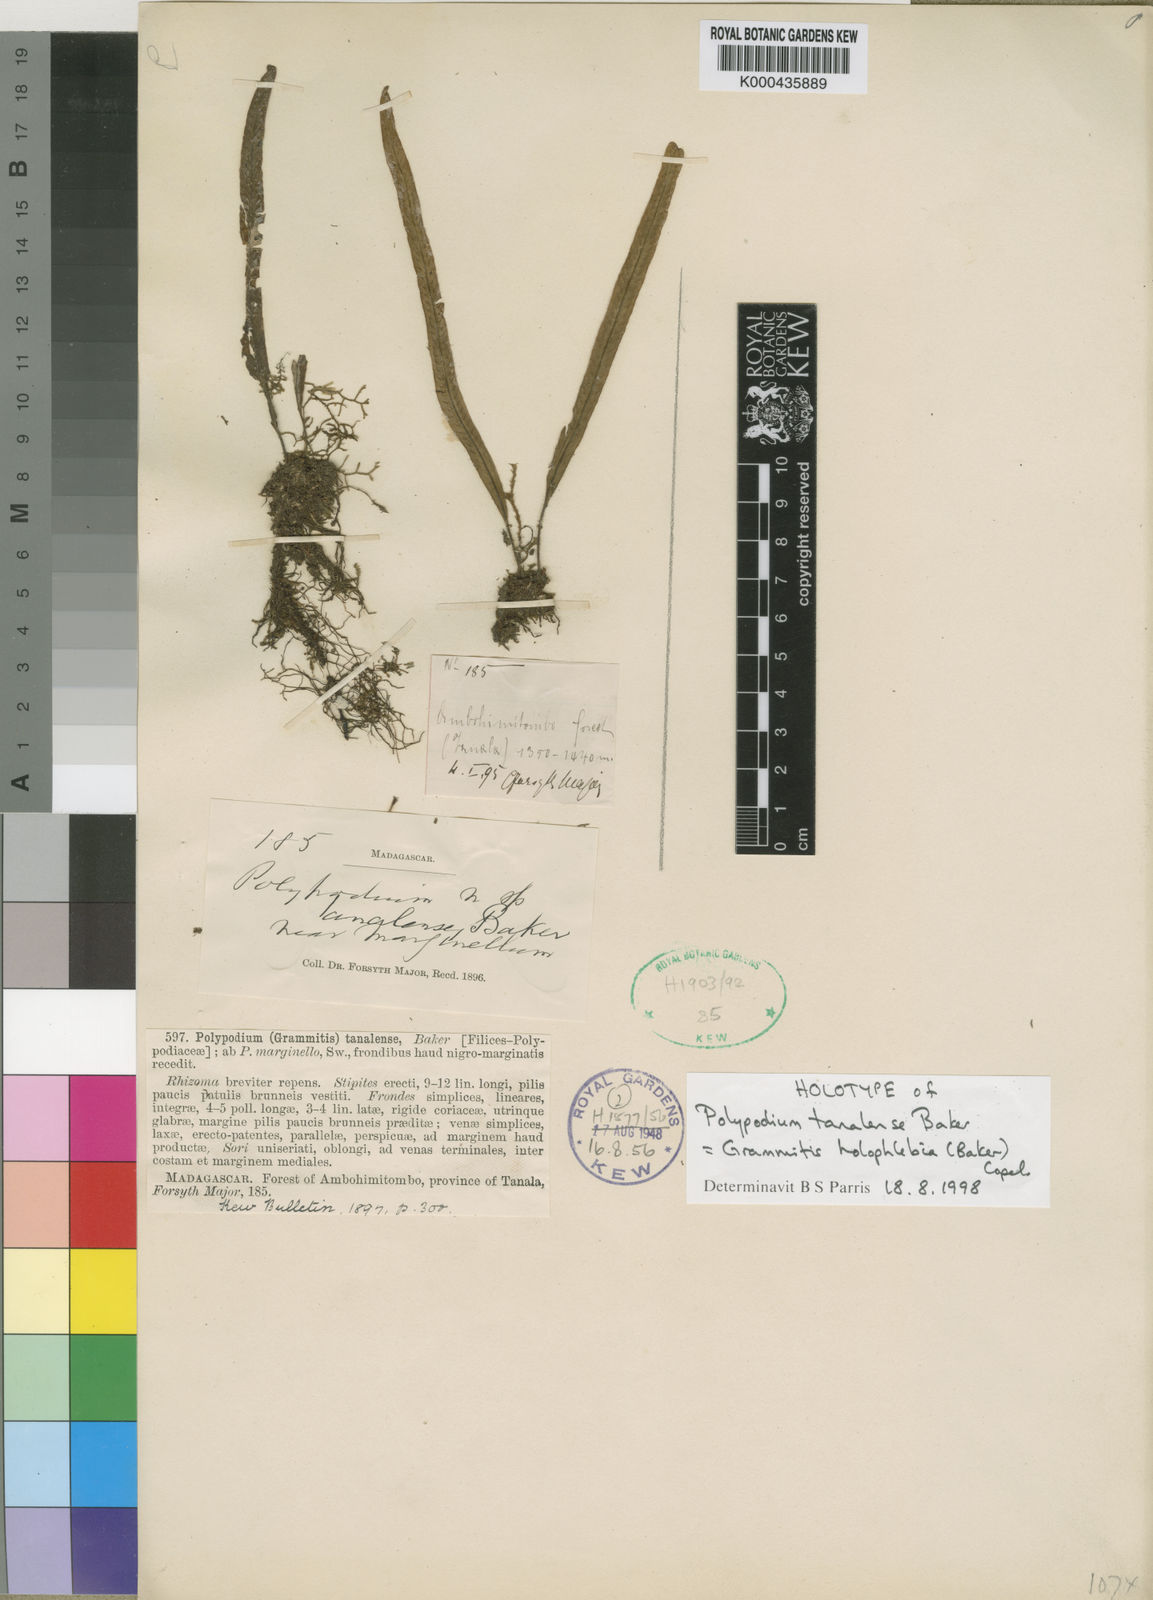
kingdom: Plantae
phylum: Tracheophyta
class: Polypodiopsida
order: Polypodiales
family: Polypodiaceae
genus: Grammitis
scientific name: Grammitis
